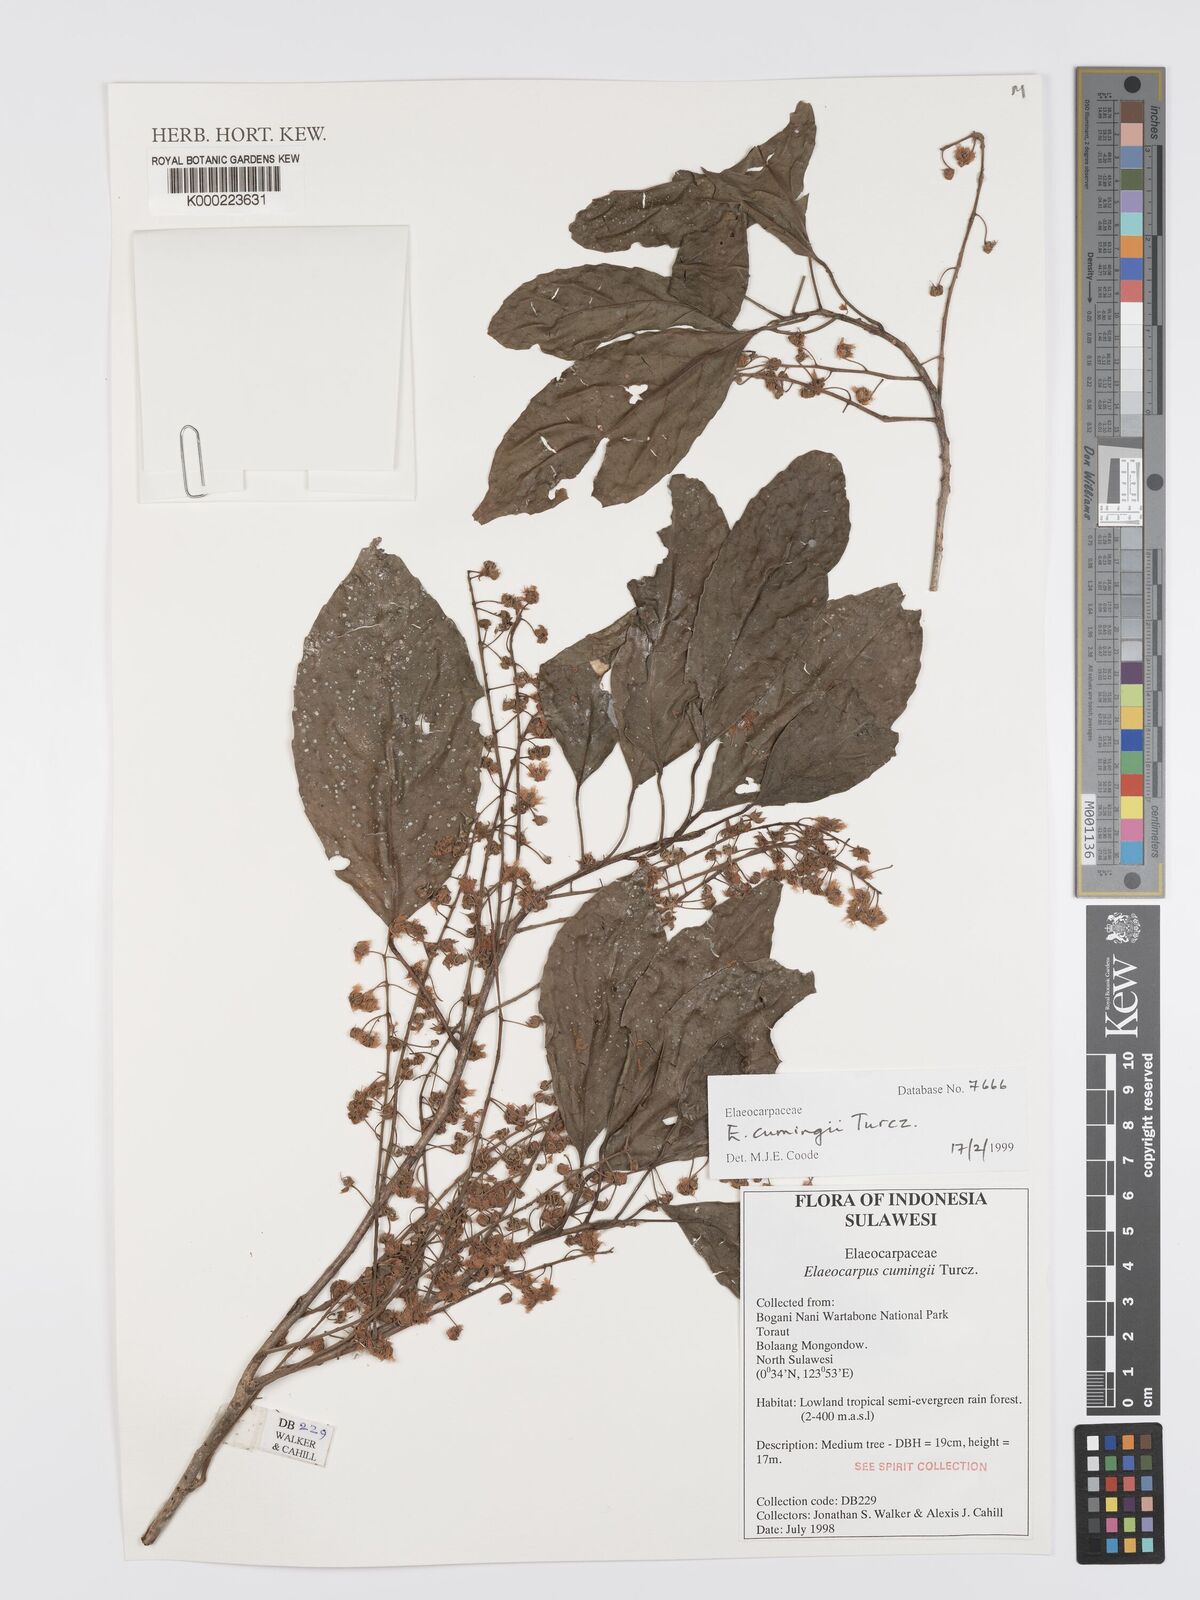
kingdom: Plantae
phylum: Tracheophyta
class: Magnoliopsida
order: Oxalidales
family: Elaeocarpaceae
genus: Elaeocarpus
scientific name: Elaeocarpus cumingii
